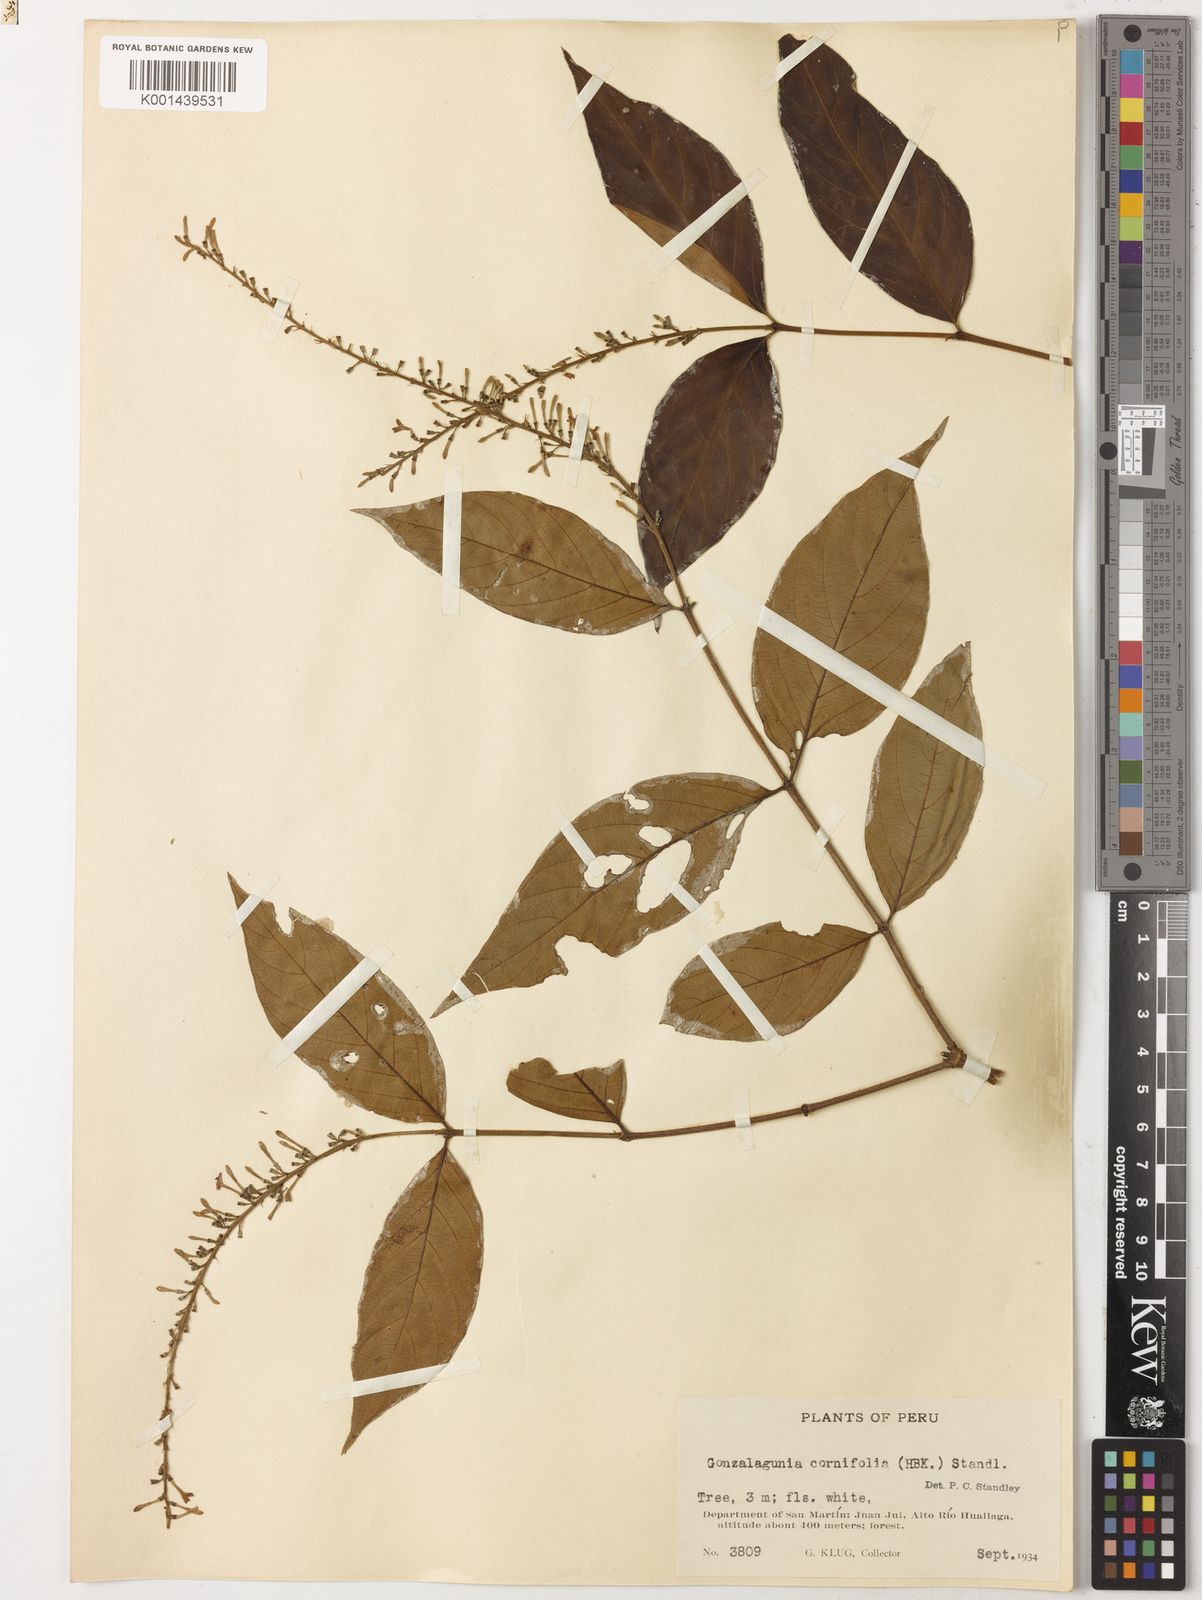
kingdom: Plantae
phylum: Tracheophyta
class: Magnoliopsida
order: Gentianales
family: Rubiaceae
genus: Gonzalagunia
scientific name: Gonzalagunia cornifolia
